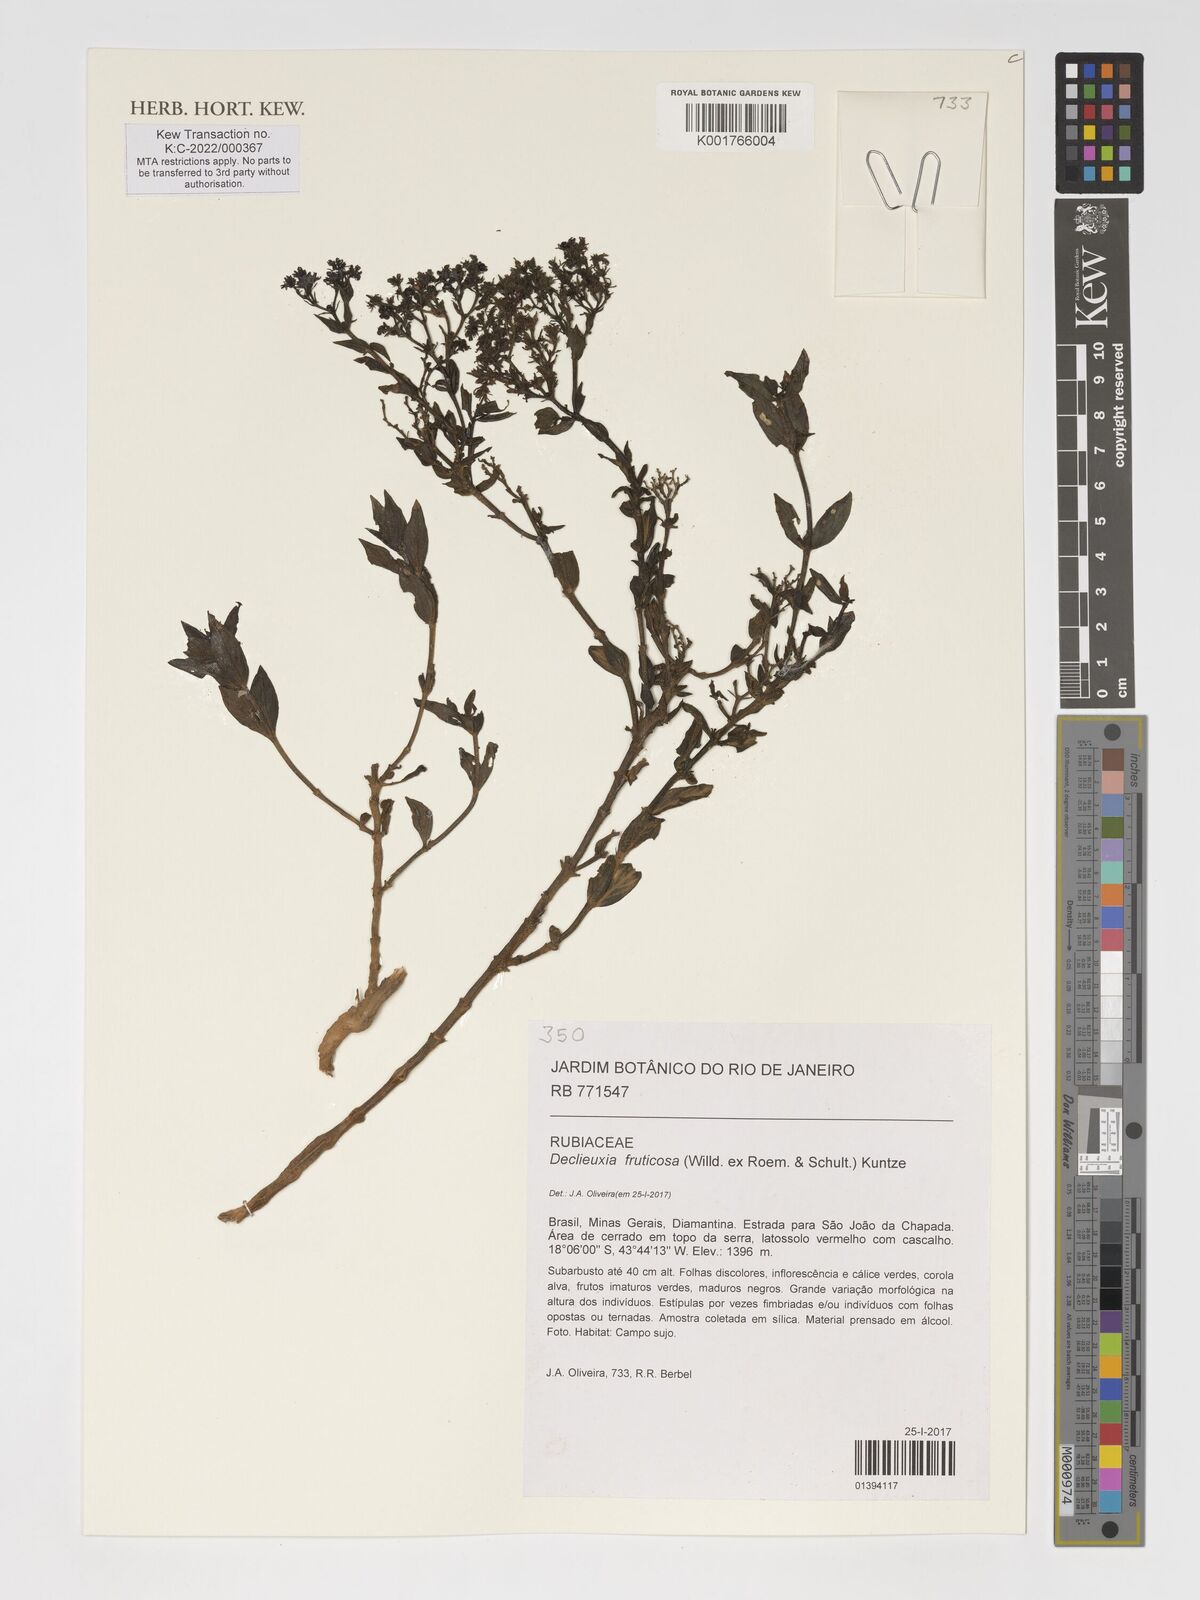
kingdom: Plantae
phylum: Tracheophyta
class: Magnoliopsida
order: Gentianales
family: Rubiaceae
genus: Declieuxia
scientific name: Declieuxia fruticosa
